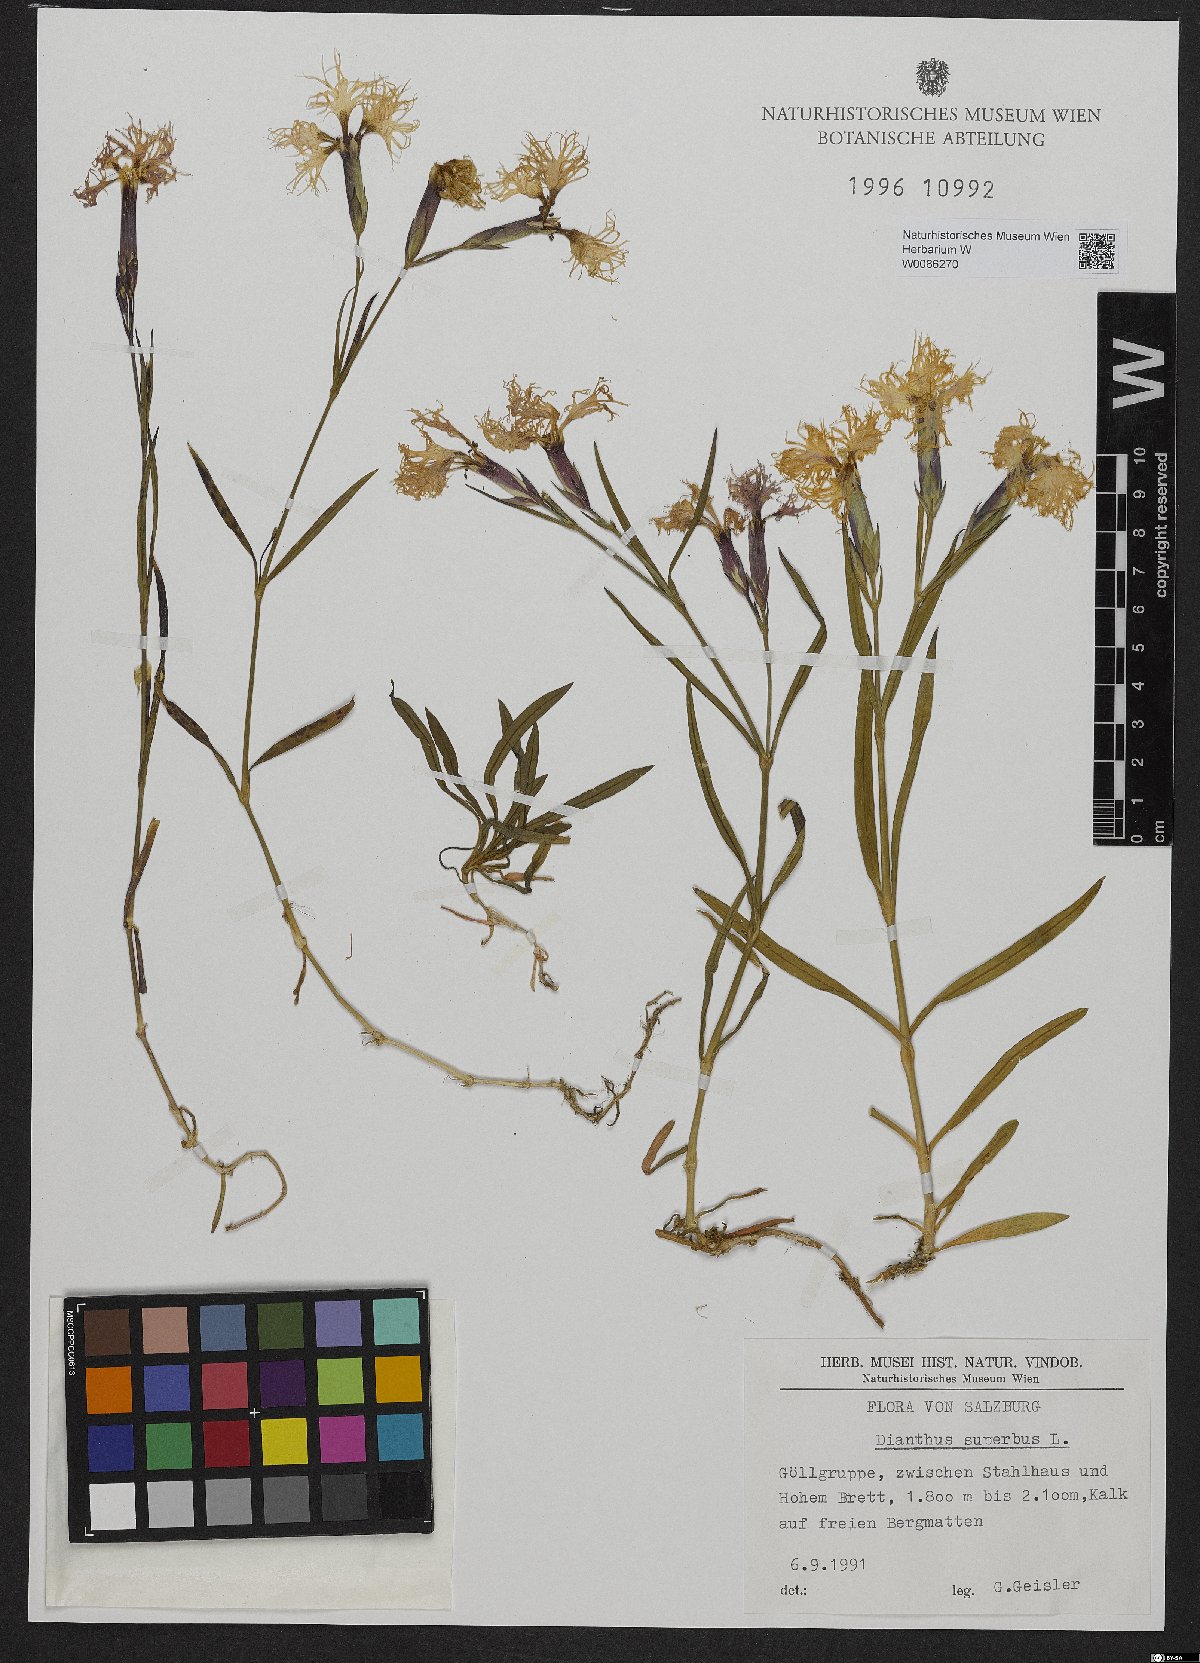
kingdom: Plantae
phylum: Tracheophyta
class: Magnoliopsida
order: Caryophyllales
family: Caryophyllaceae
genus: Dianthus
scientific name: Dianthus superbus
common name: Fringed pink
